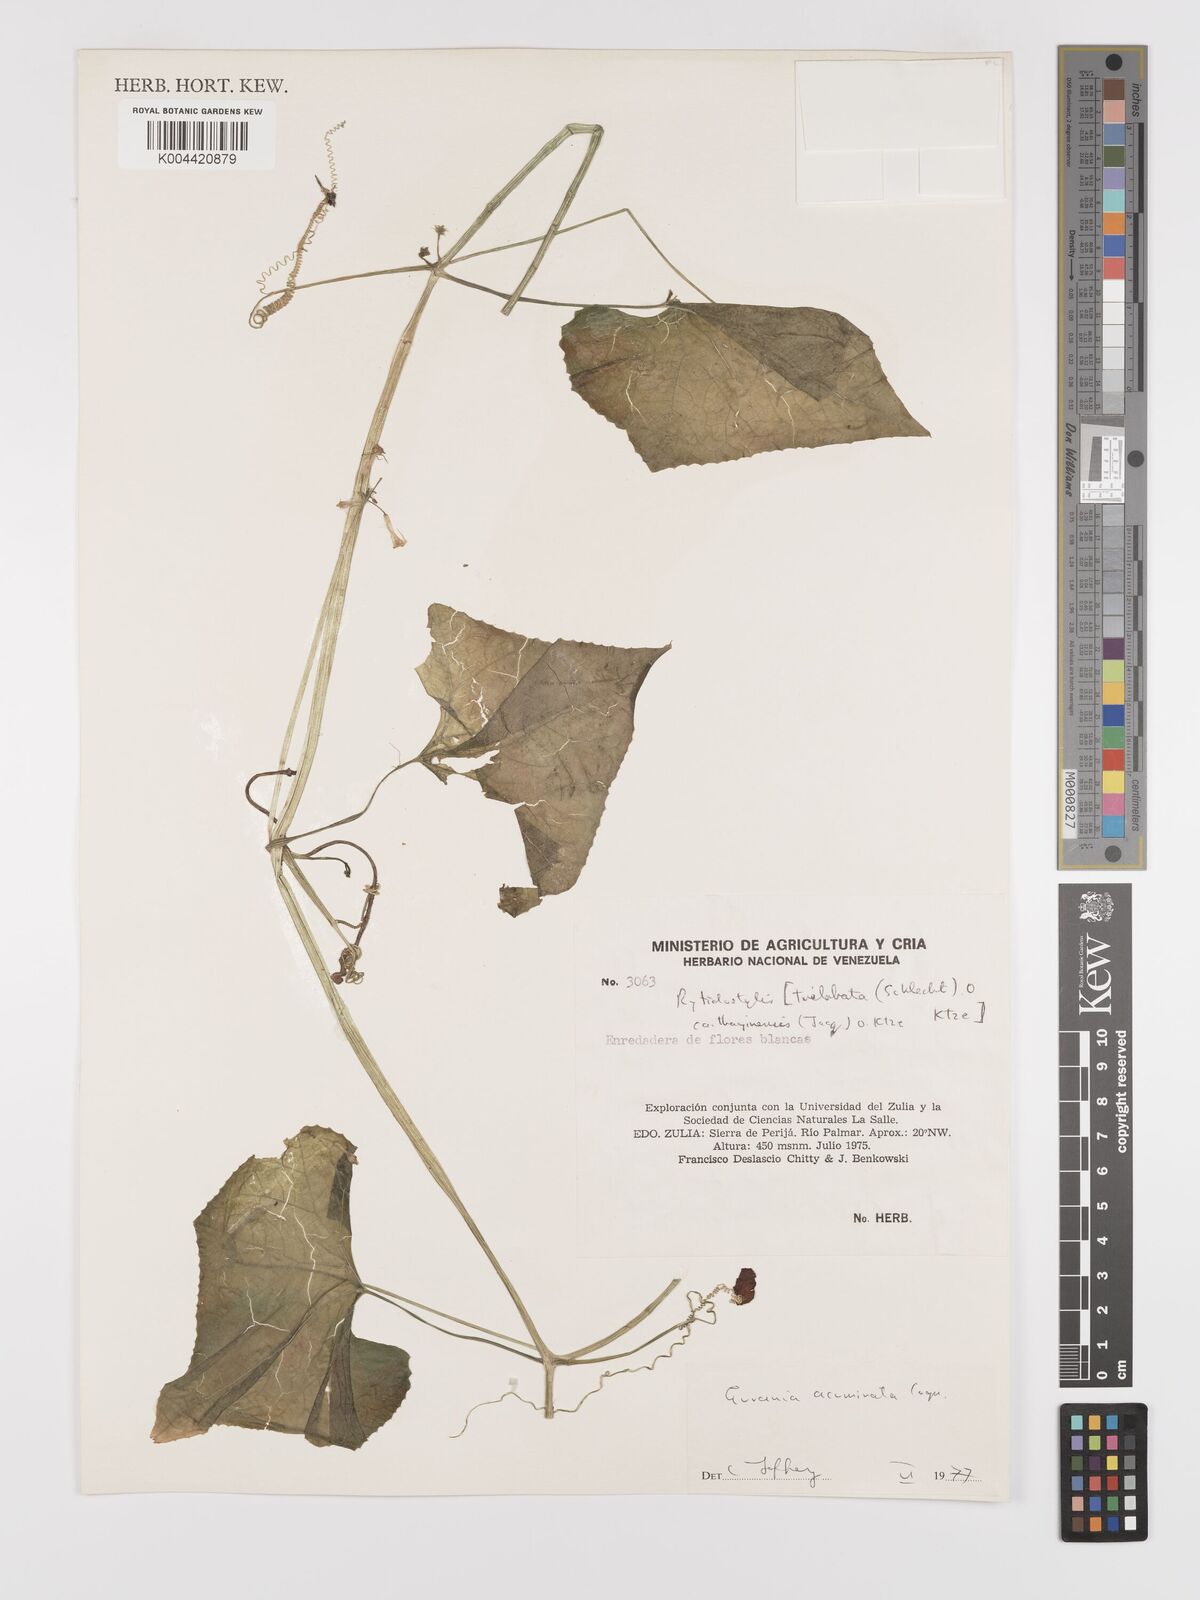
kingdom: Plantae
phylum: Tracheophyta
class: Magnoliopsida
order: Cucurbitales
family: Cucurbitaceae
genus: Cyclanthera
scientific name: Cyclanthera carthagenensis
